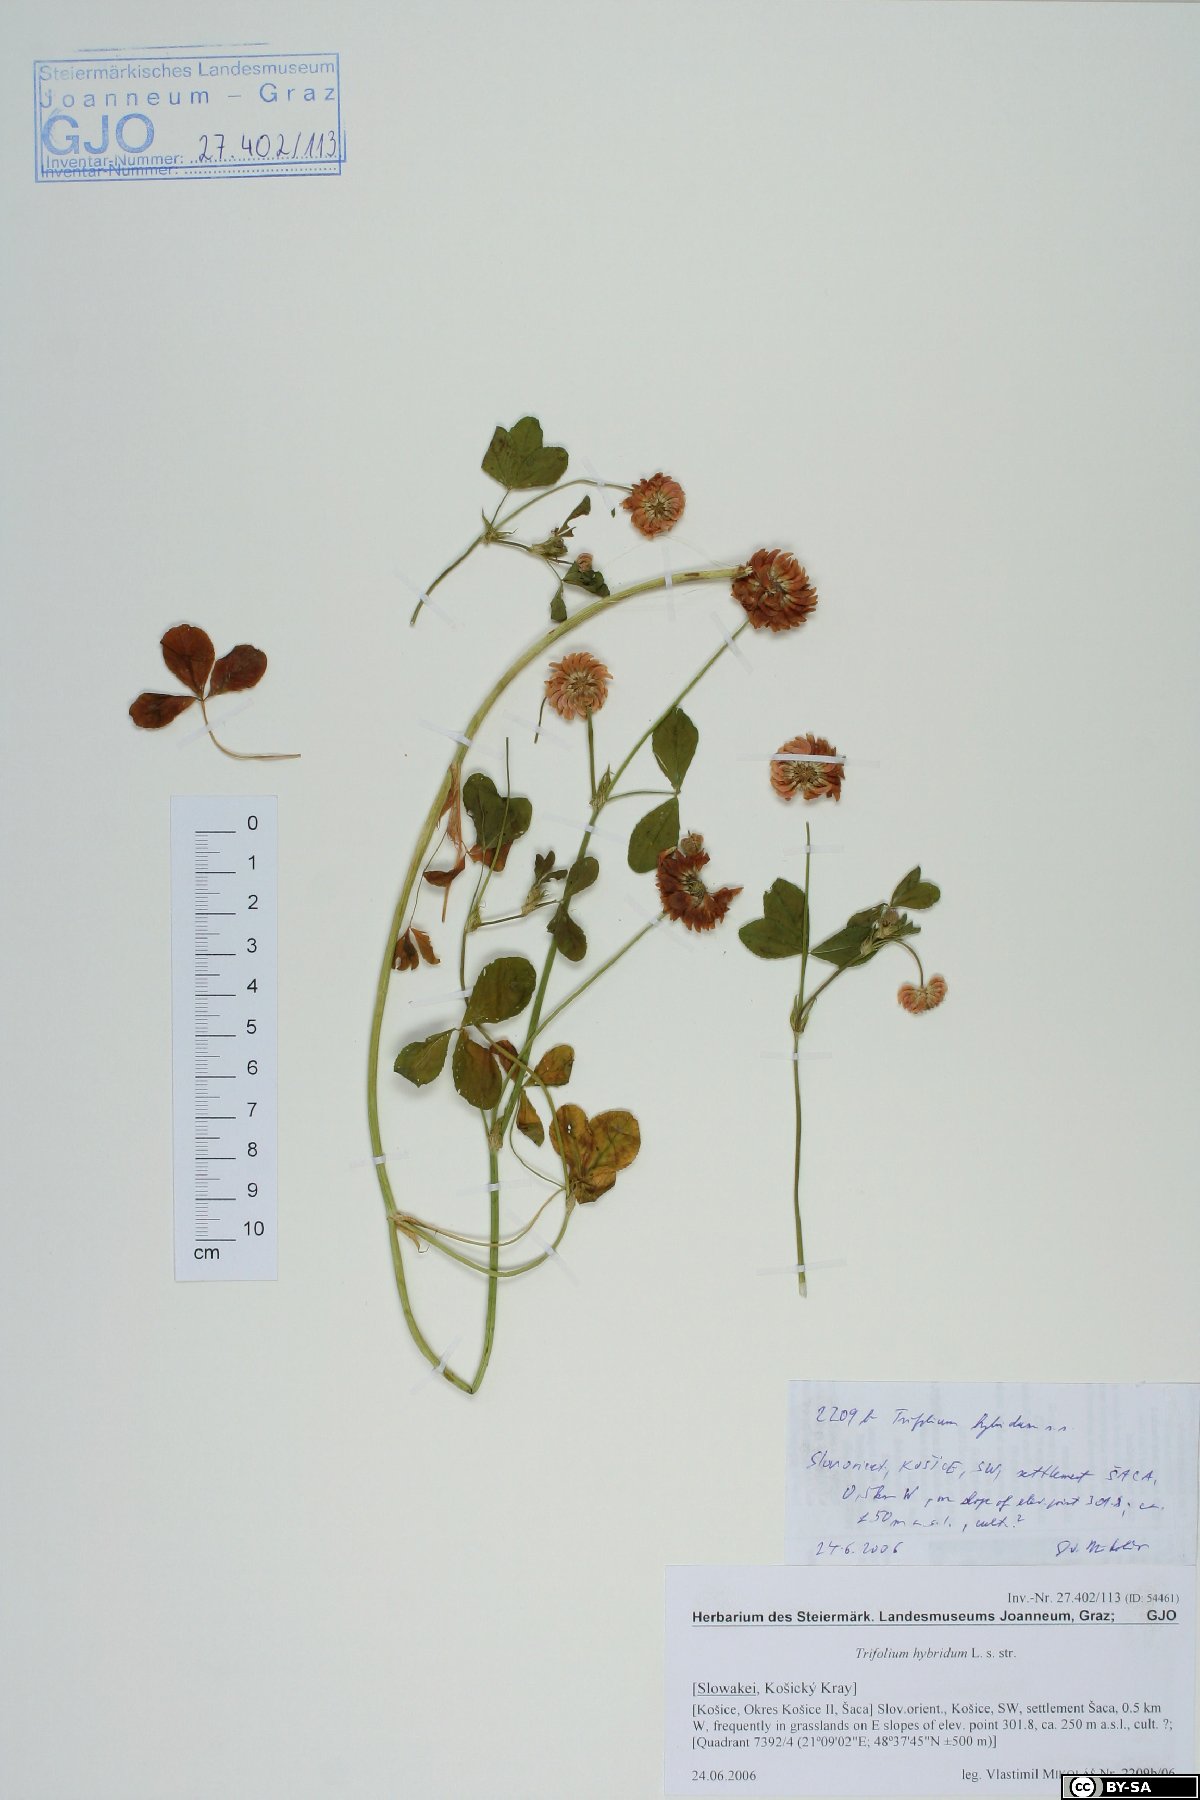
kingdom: Plantae
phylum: Tracheophyta
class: Magnoliopsida
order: Fabales
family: Fabaceae
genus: Trifolium
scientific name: Trifolium hybridum
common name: Alsike clover
